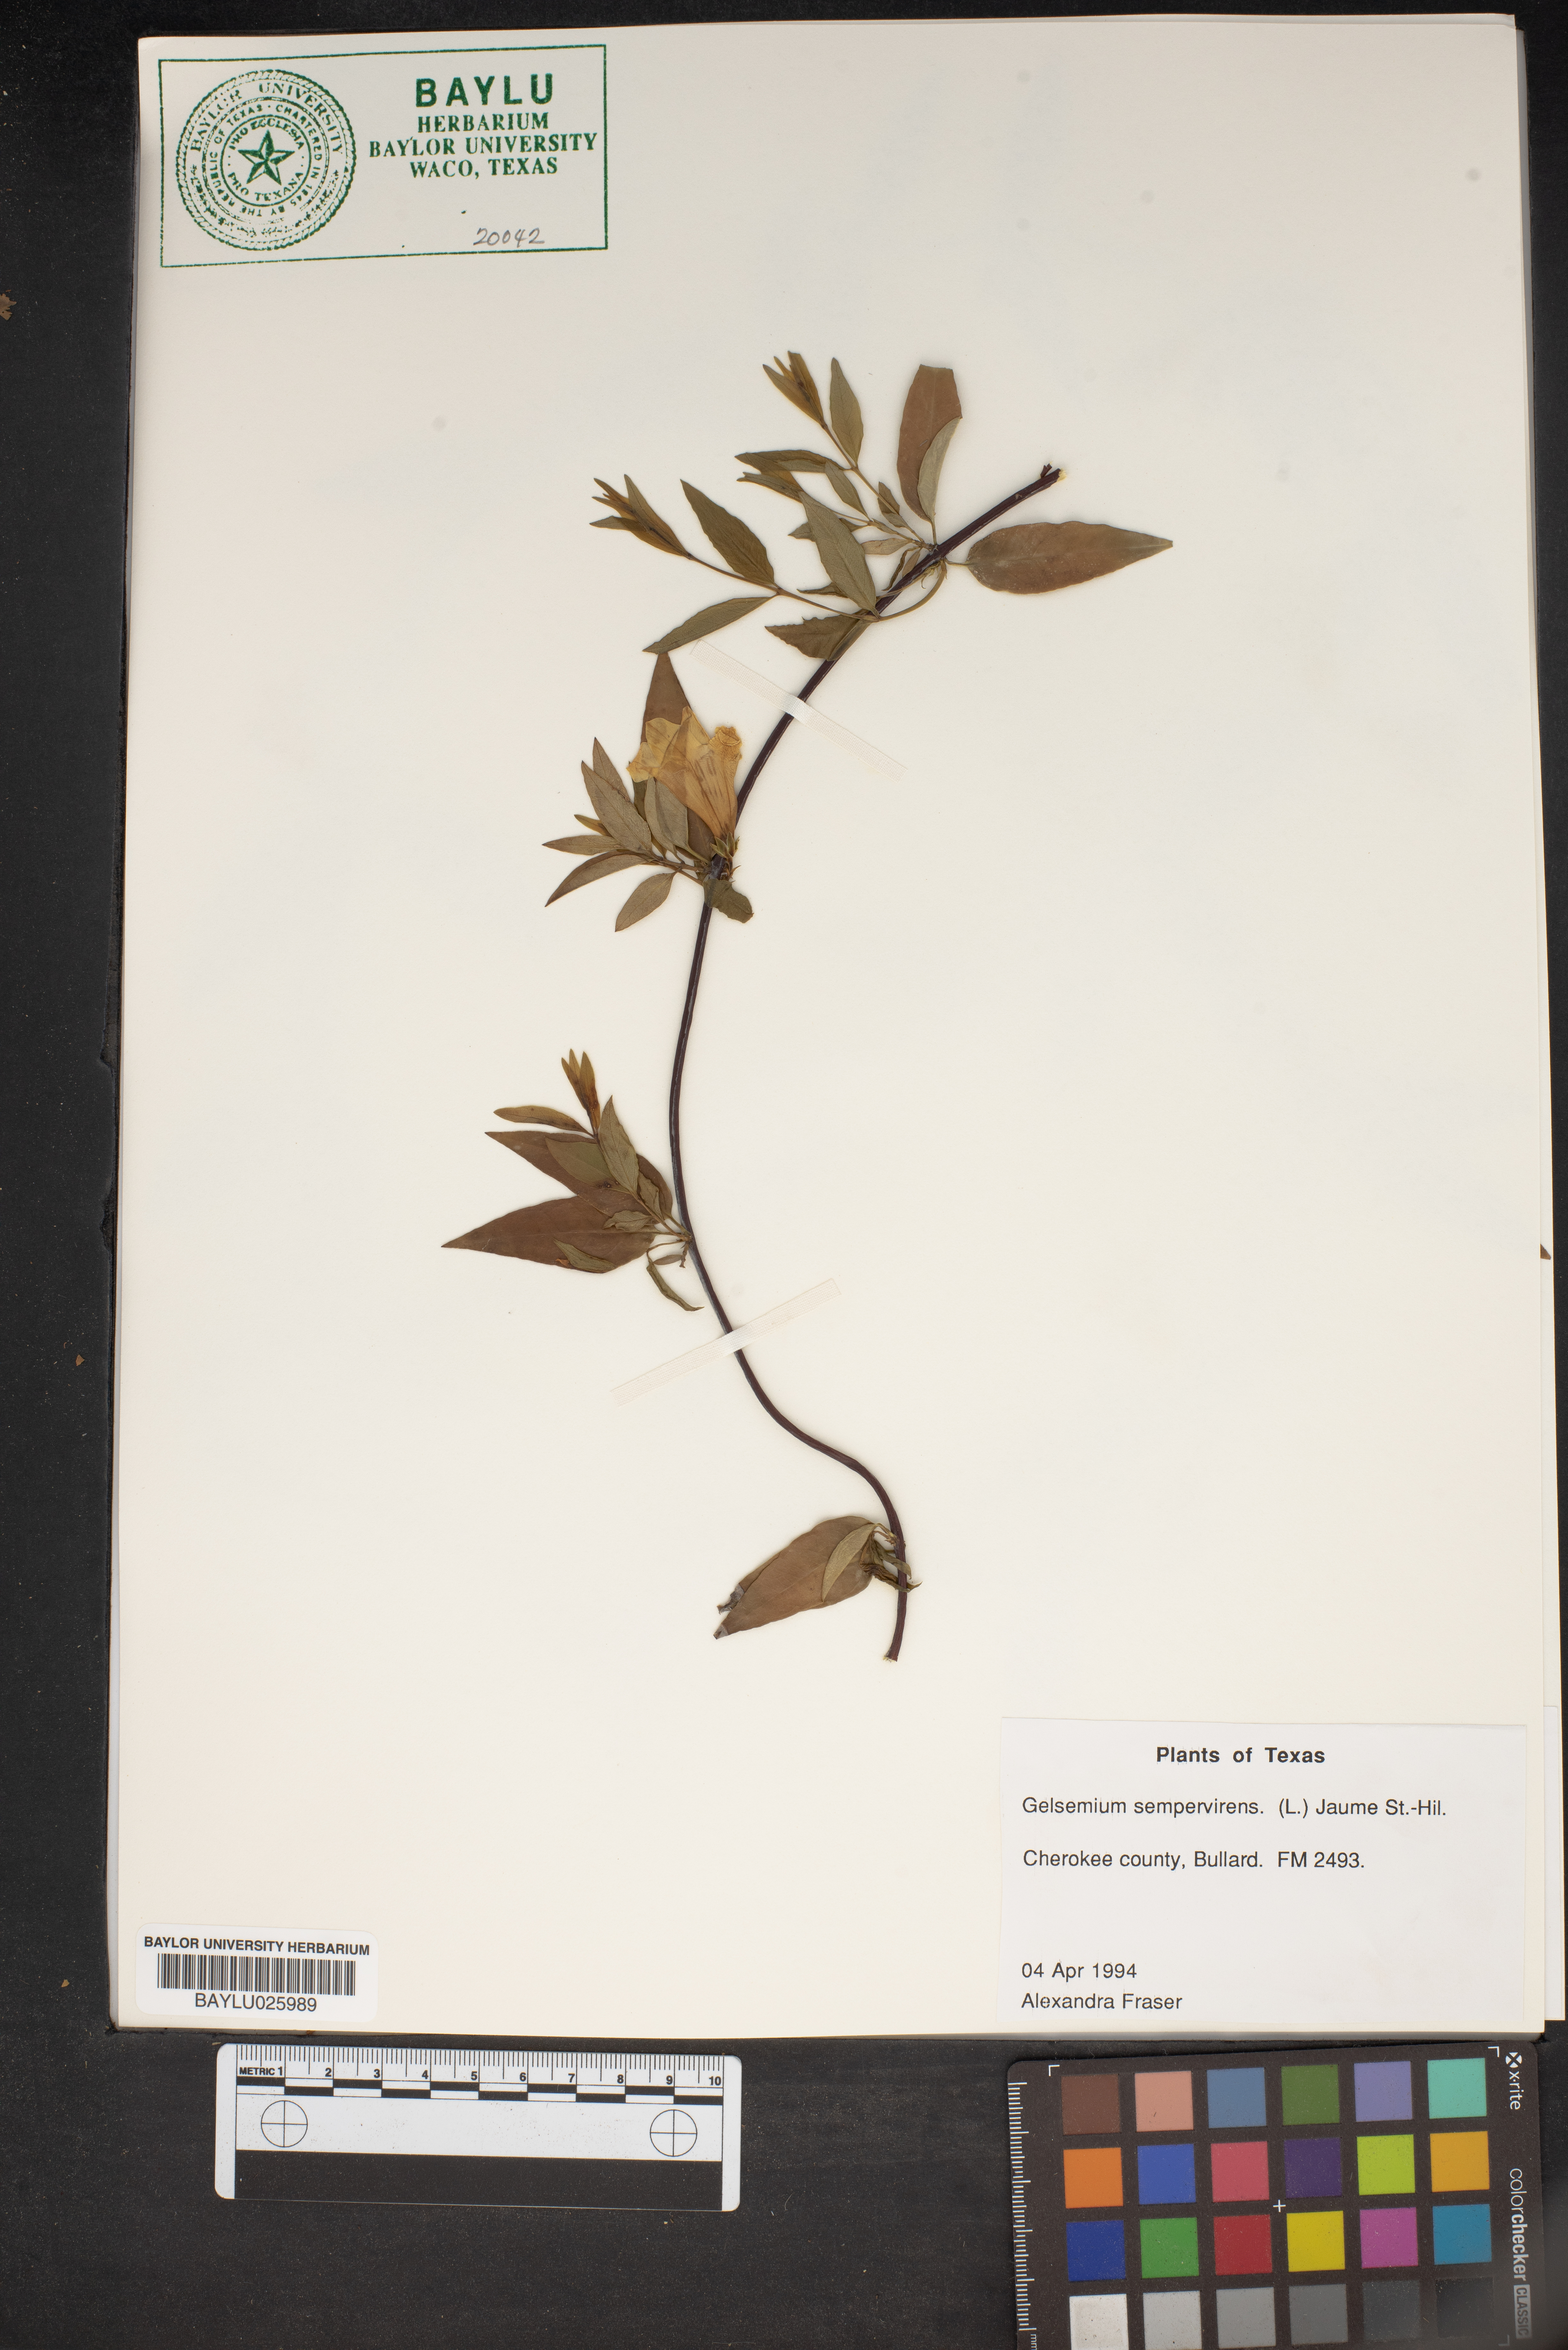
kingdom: Plantae
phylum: Tracheophyta
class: Magnoliopsida
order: Gentianales
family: Gelsemiaceae
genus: Gelsemium
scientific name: Gelsemium sempervirens
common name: Carolina-jasmine
